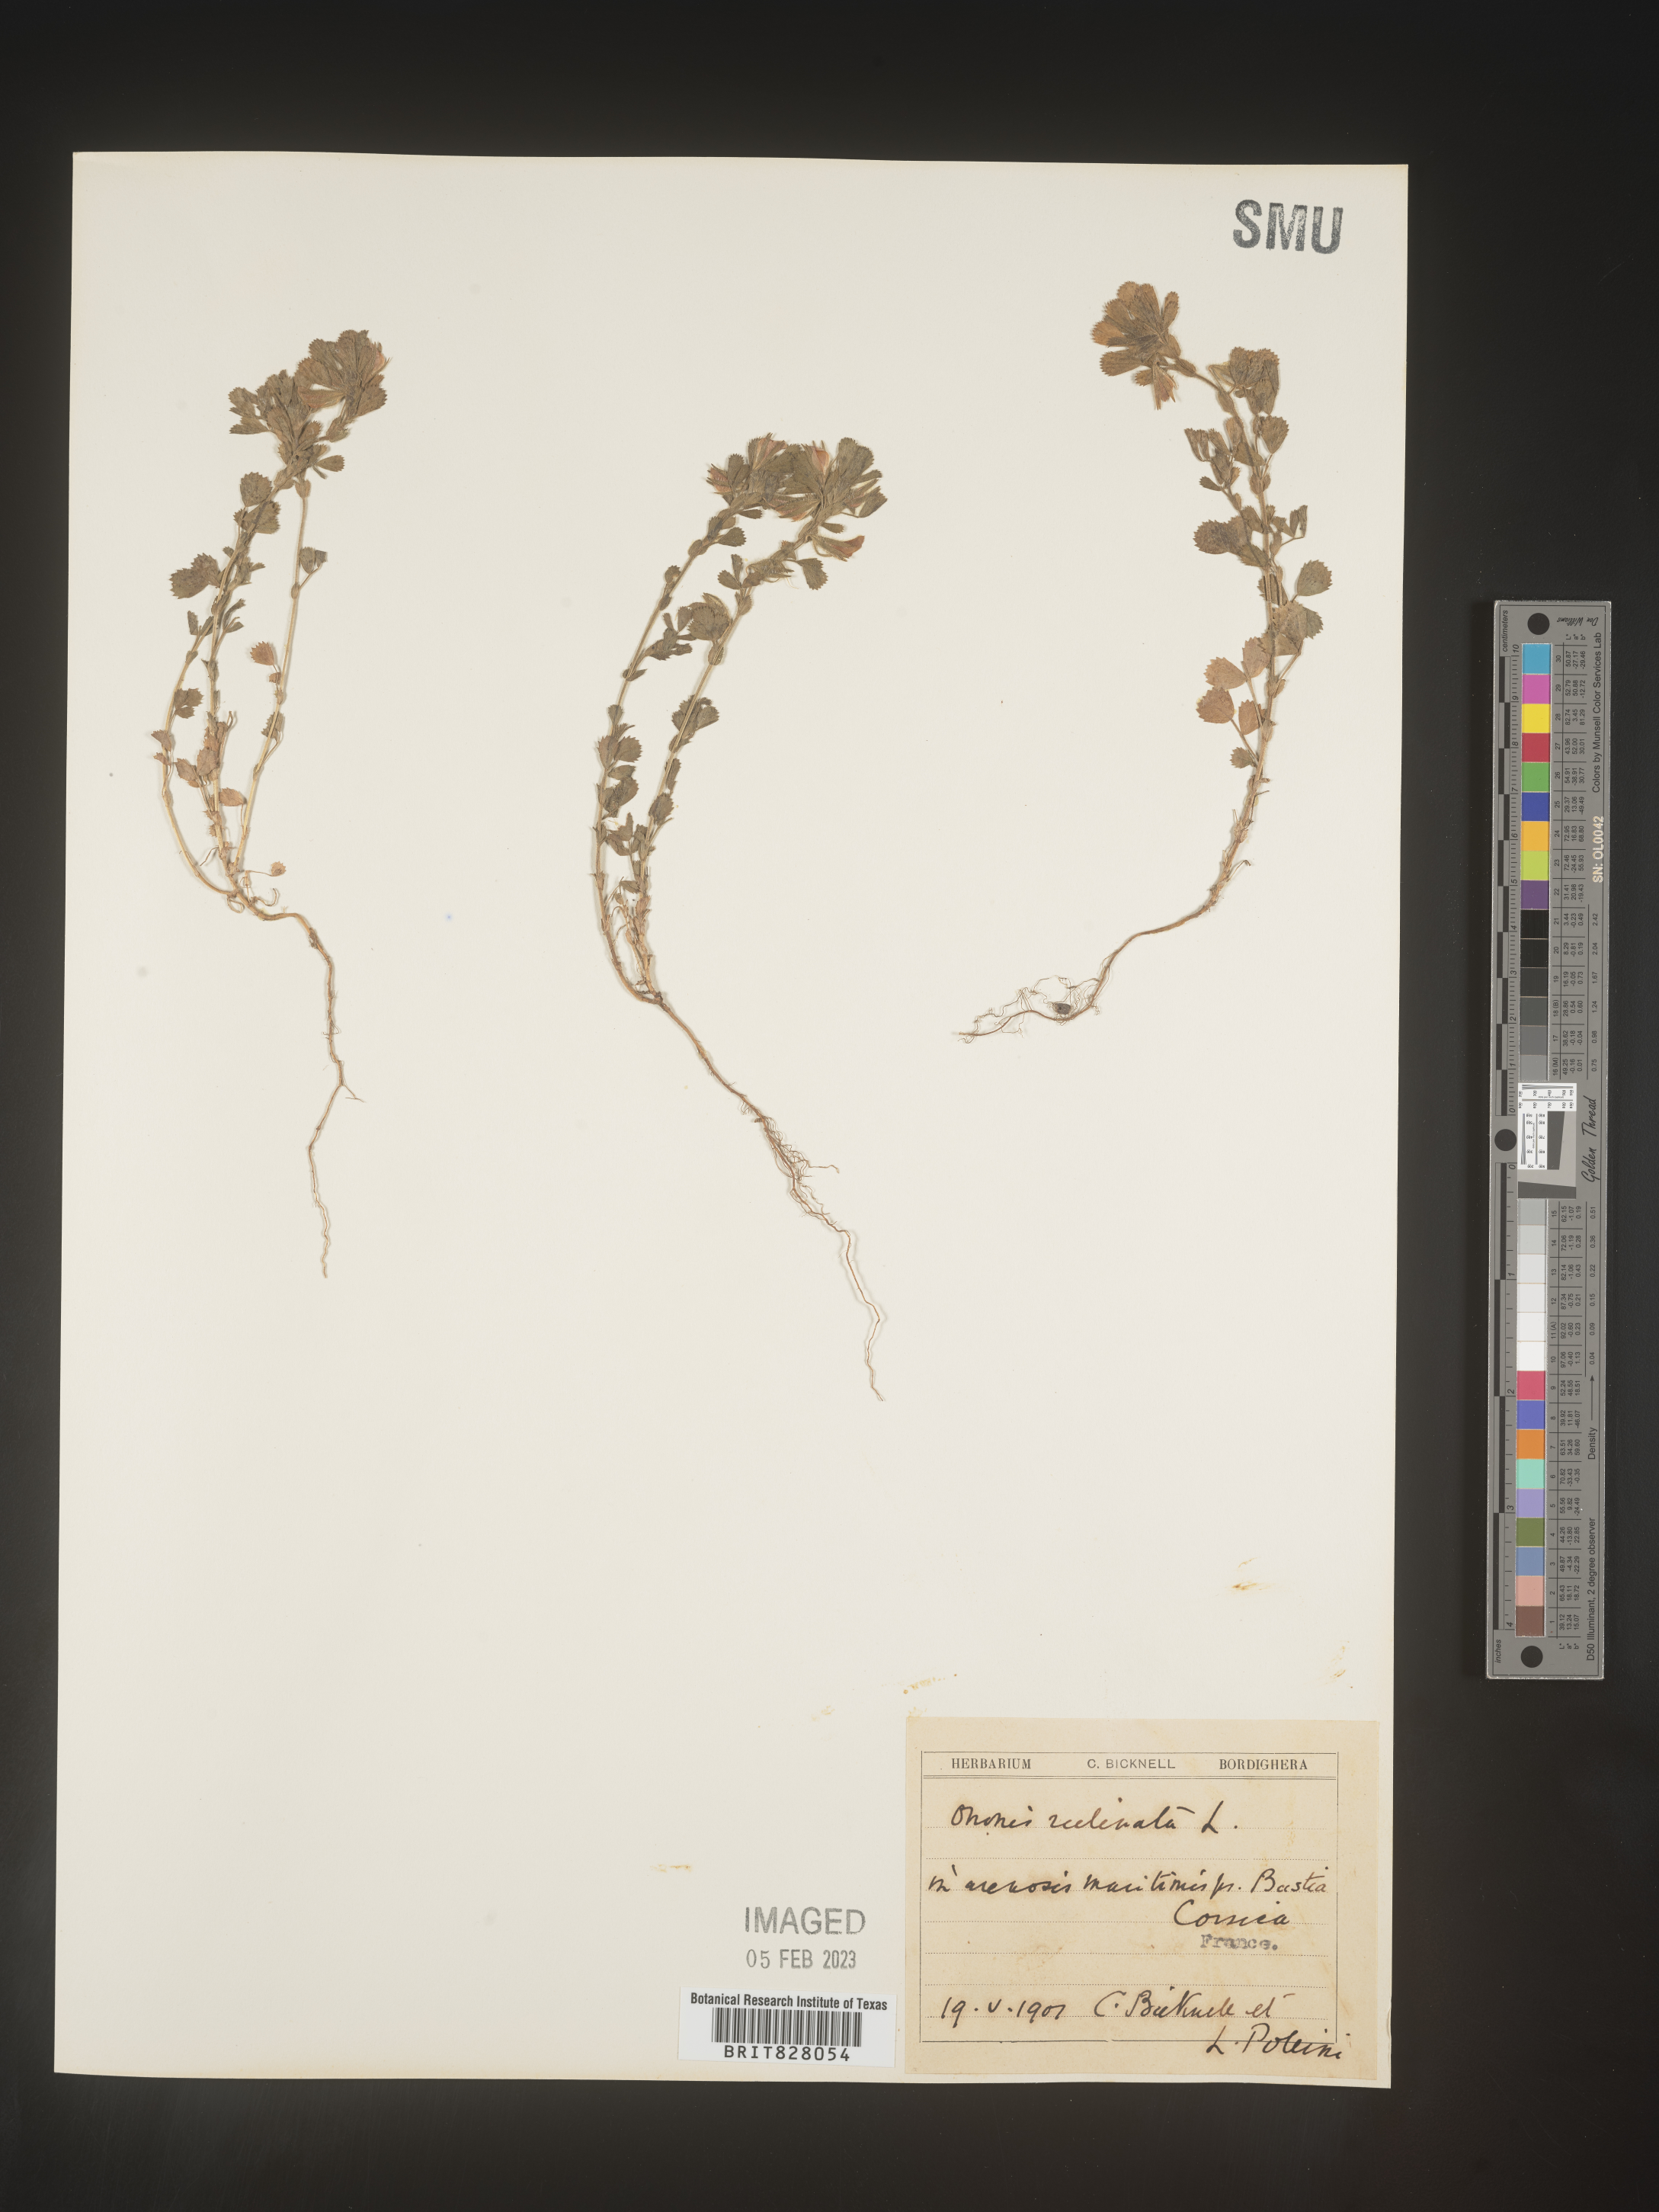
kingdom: Plantae
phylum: Tracheophyta
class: Magnoliopsida
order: Fabales
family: Fabaceae
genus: Ononis
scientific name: Ononis
